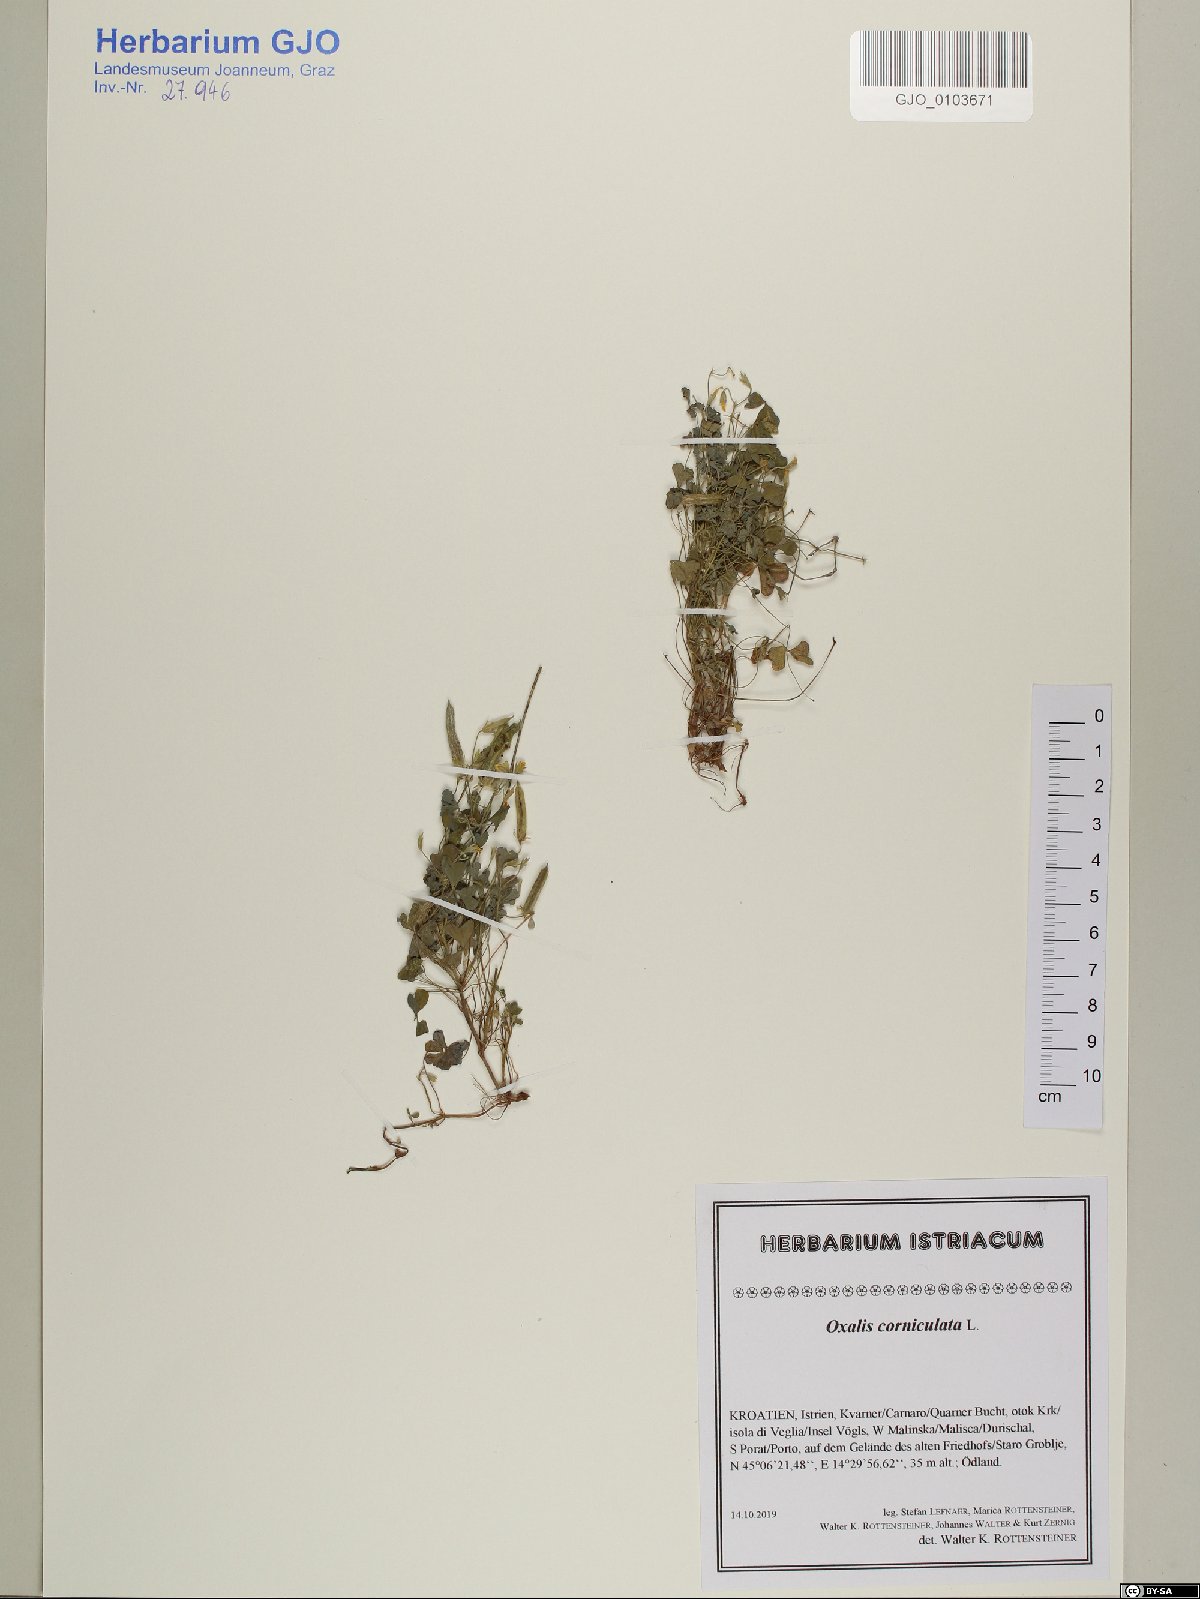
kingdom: Plantae
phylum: Tracheophyta
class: Magnoliopsida
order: Oxalidales
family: Oxalidaceae
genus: Oxalis
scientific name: Oxalis corniculata
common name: Procumbent yellow-sorrel
